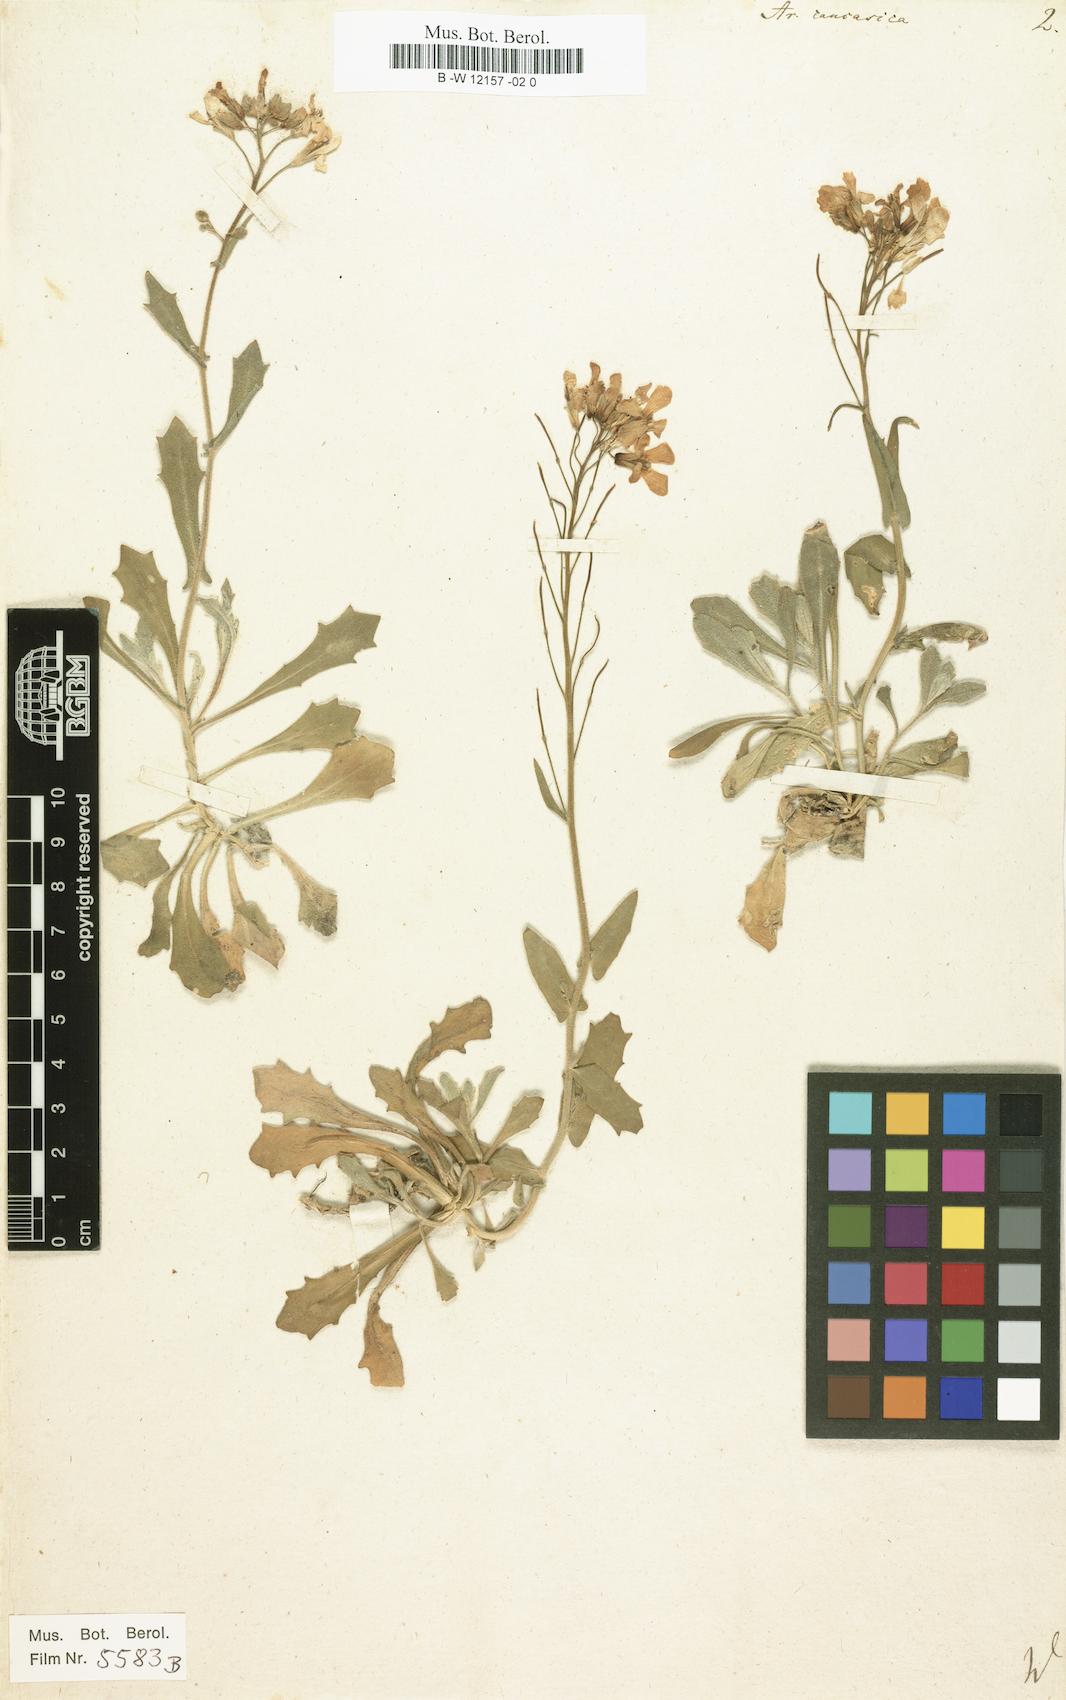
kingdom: Plantae
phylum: Tracheophyta
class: Magnoliopsida
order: Brassicales
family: Brassicaceae
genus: Arabis
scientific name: Arabis caucasica
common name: Gray rockcress
